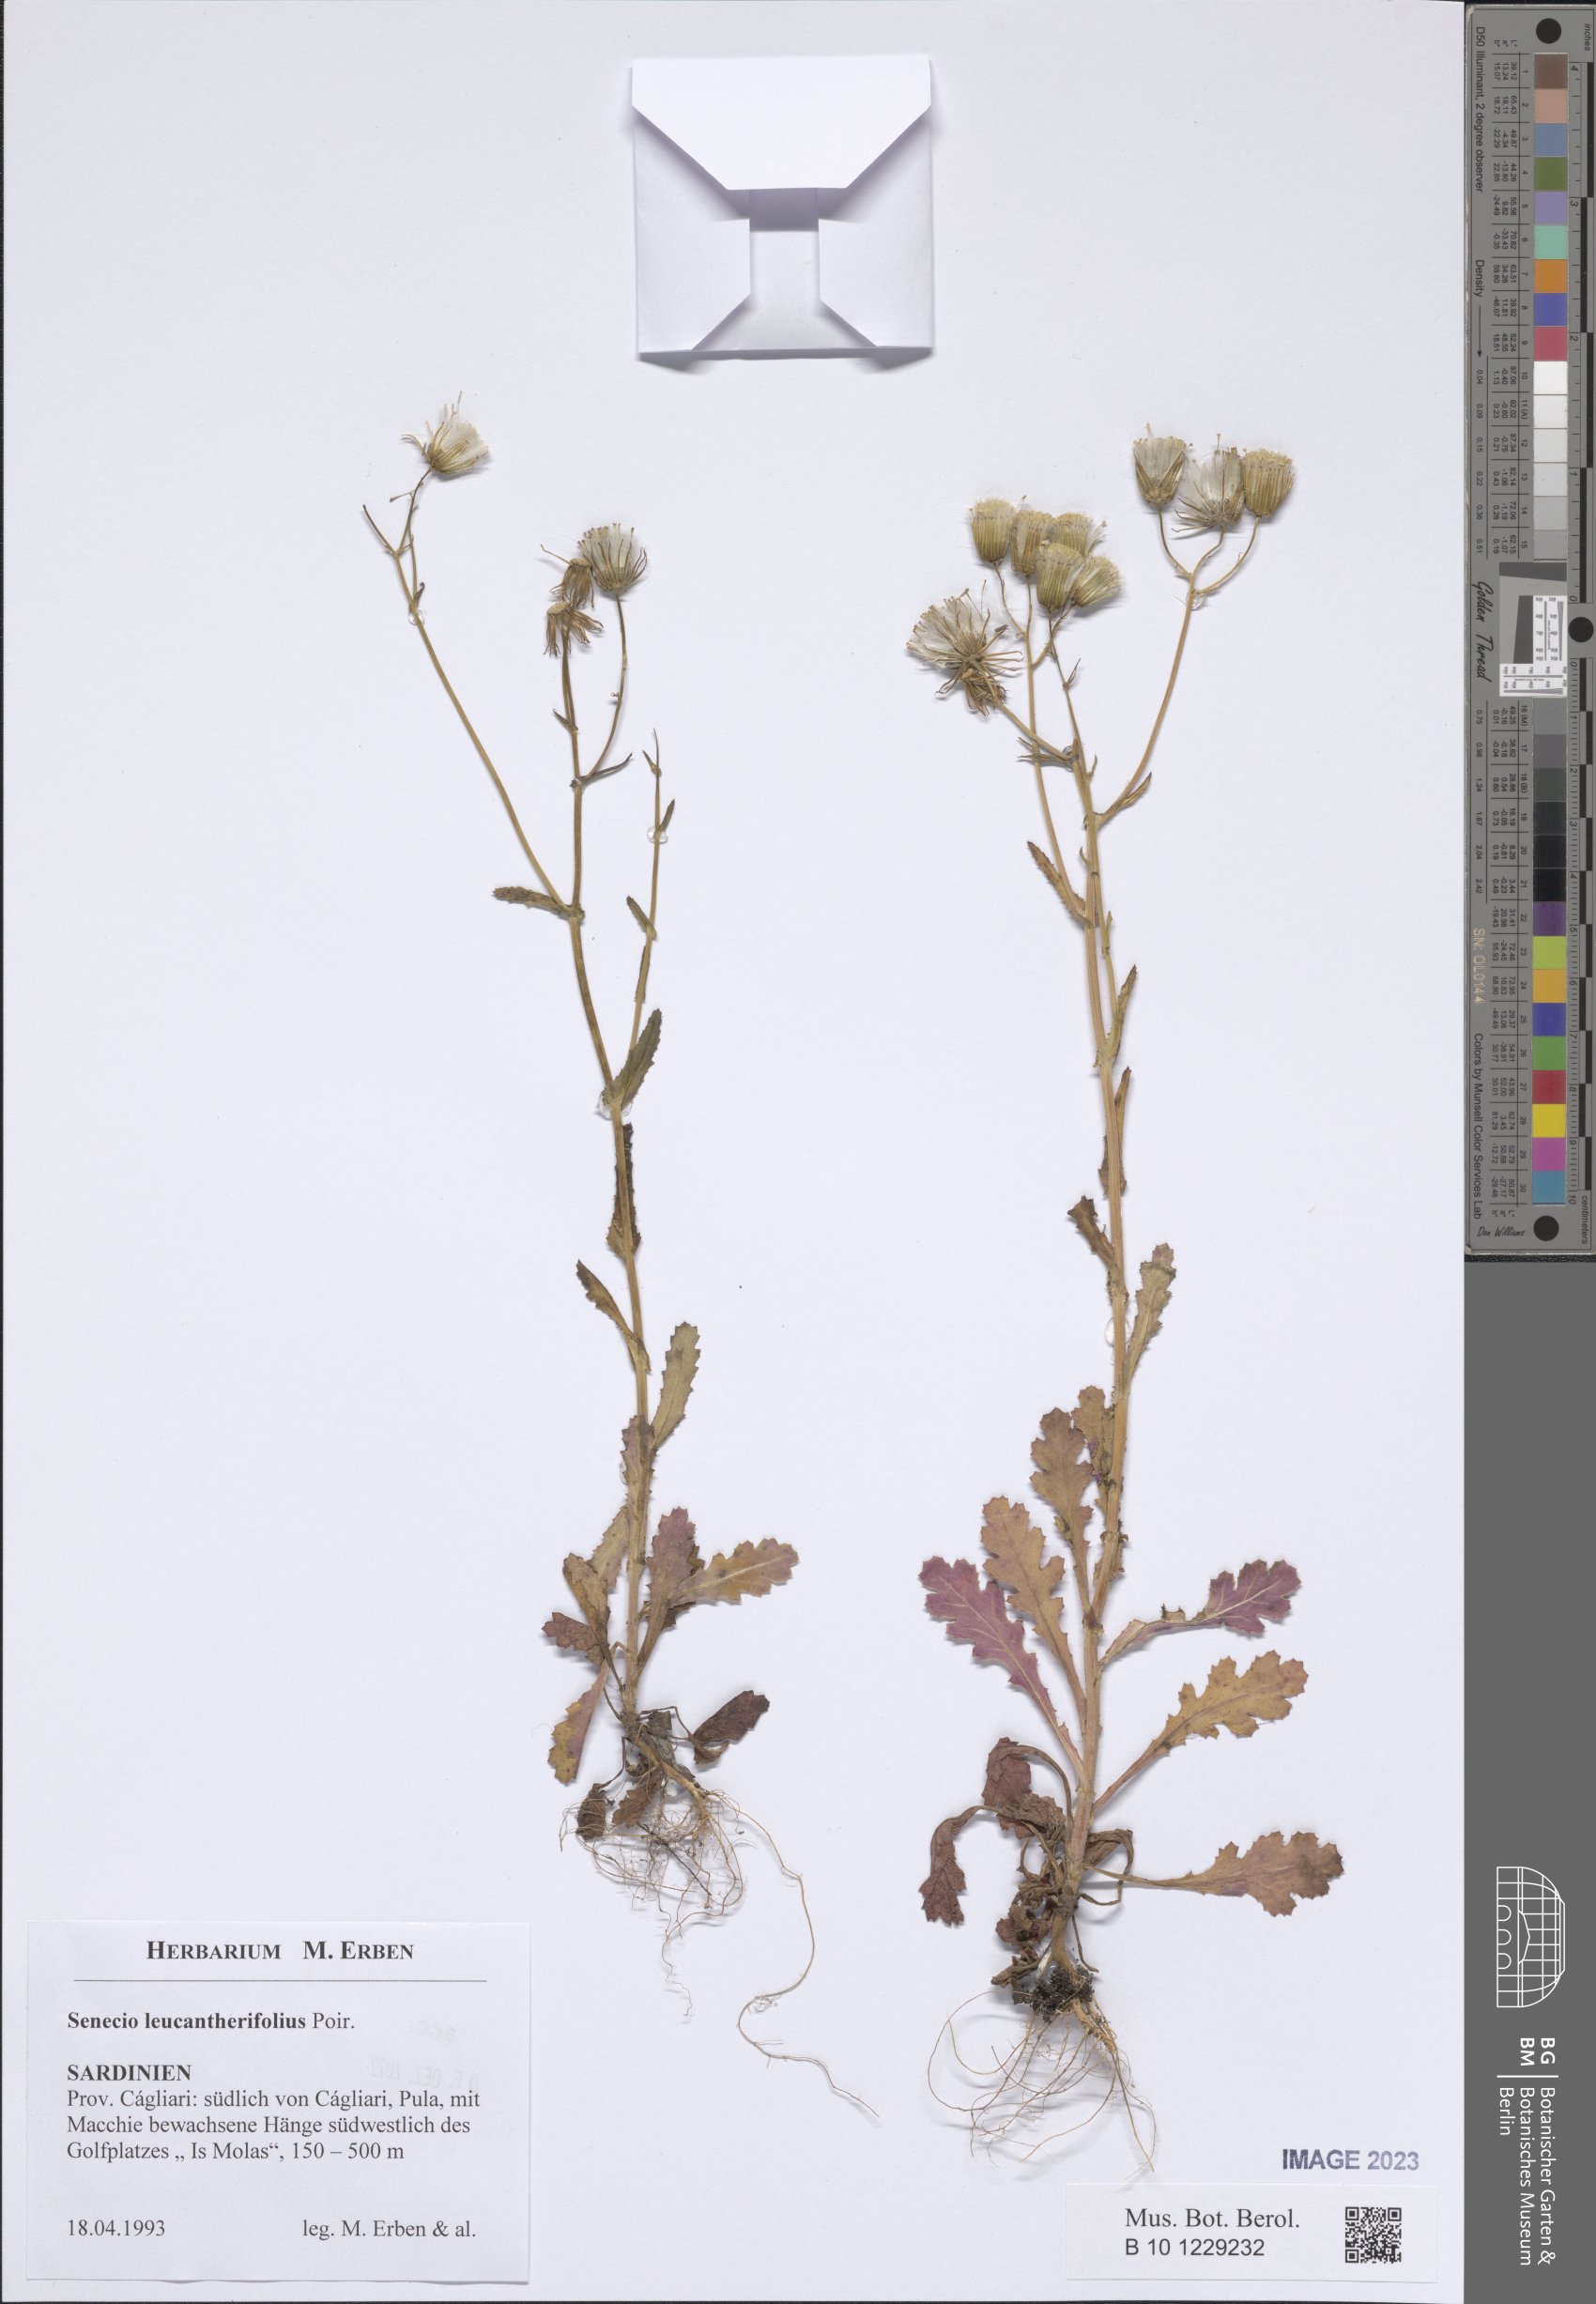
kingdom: Plantae
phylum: Tracheophyta
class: Magnoliopsida
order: Asterales
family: Asteraceae
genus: Senecio
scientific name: Senecio leucanthemifolius
